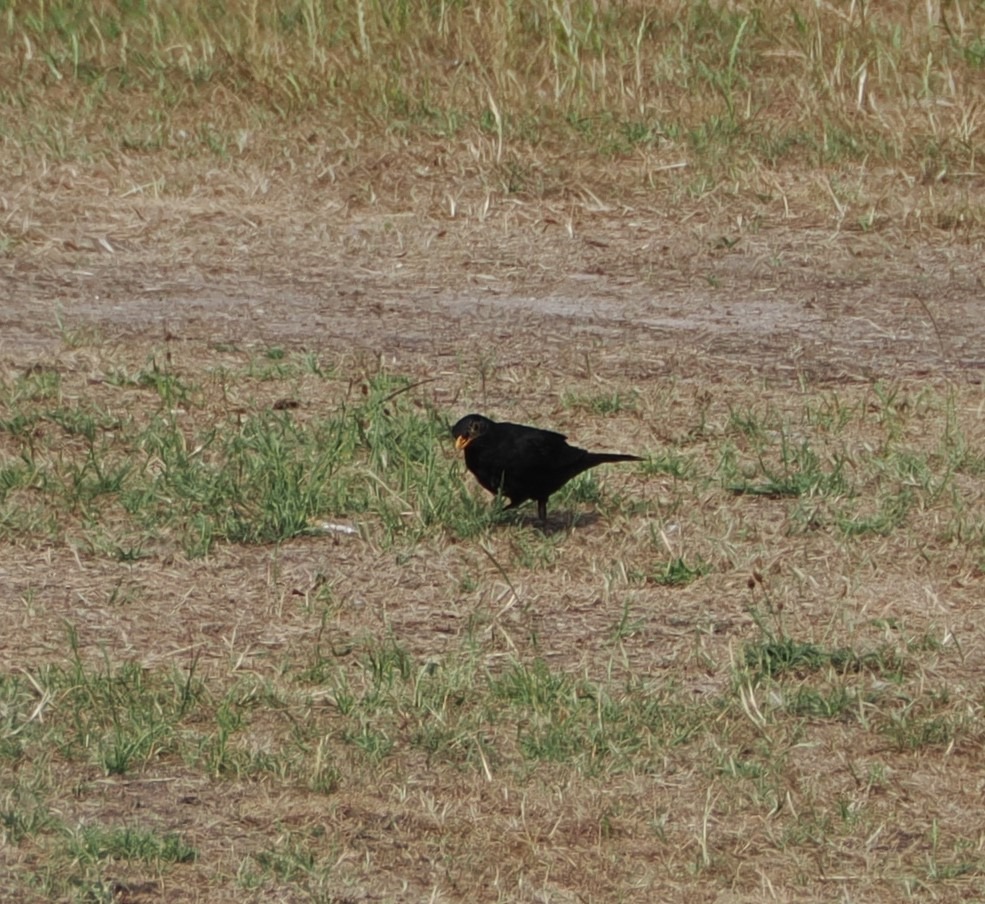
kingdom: Animalia
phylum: Chordata
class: Aves
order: Passeriformes
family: Turdidae
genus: Turdus
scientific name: Turdus merula
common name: Solsort
